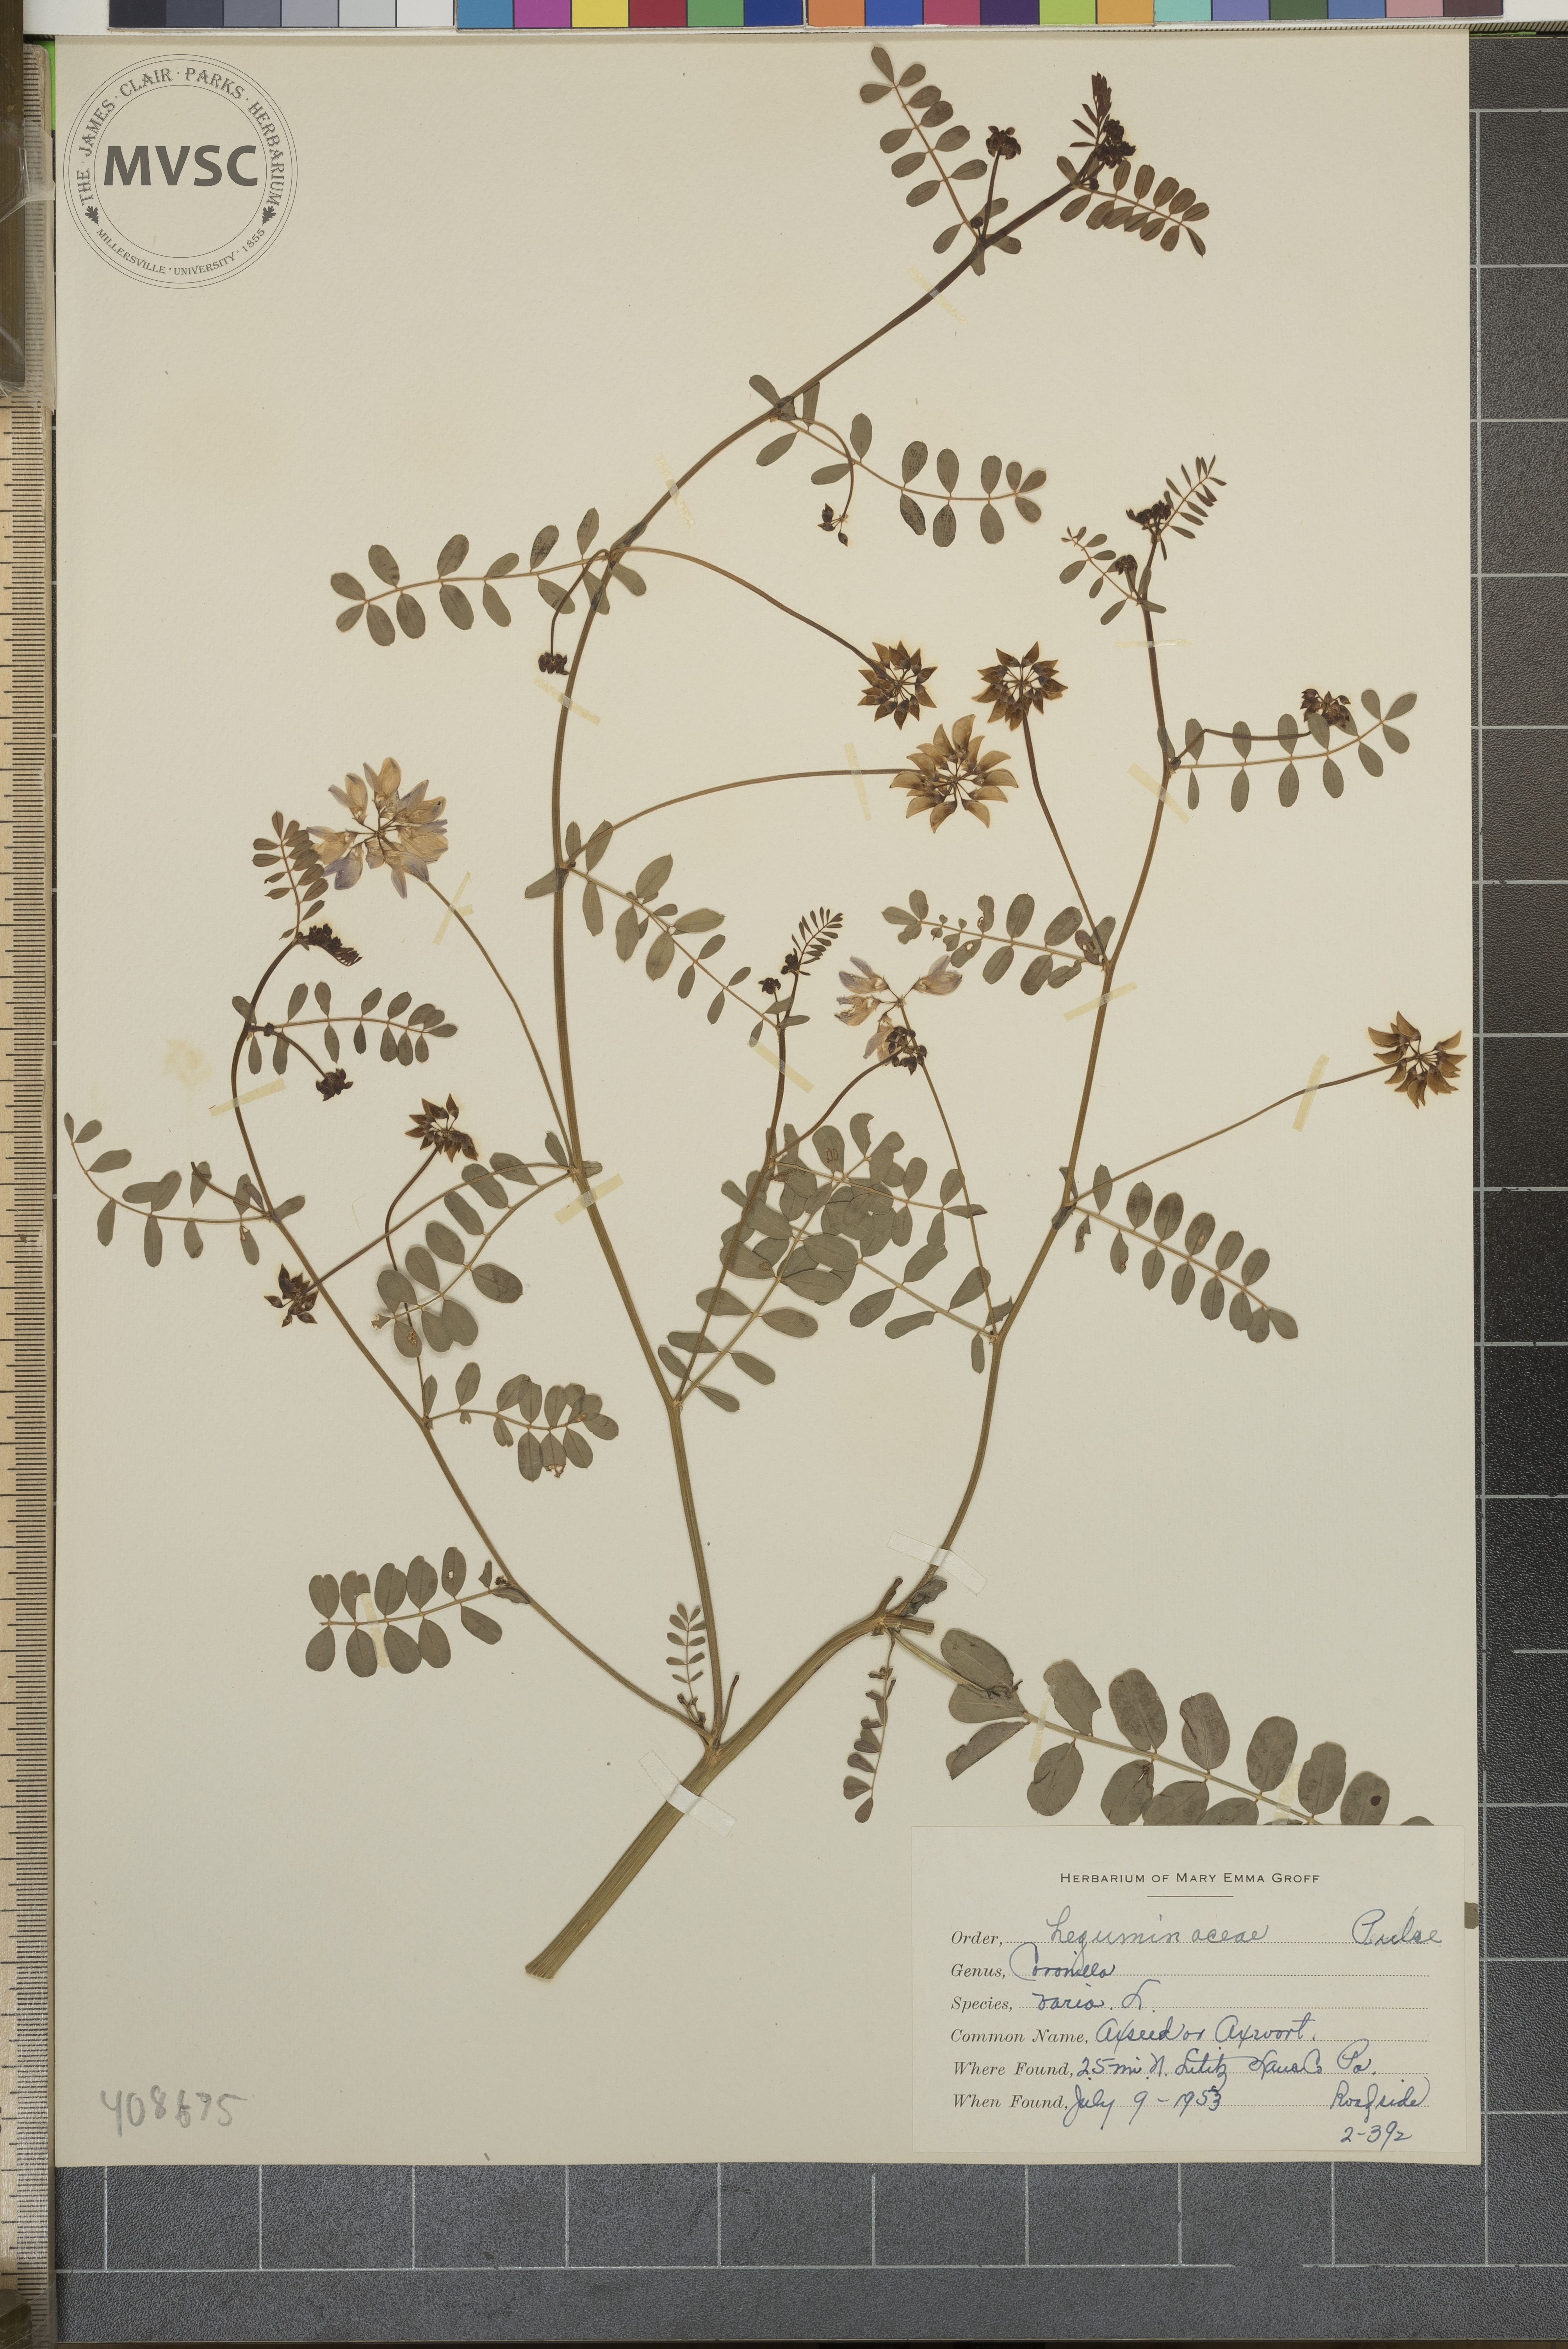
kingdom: Plantae
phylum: Tracheophyta
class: Magnoliopsida
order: Fabales
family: Fabaceae
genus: Coronilla
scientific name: Coronilla varia
